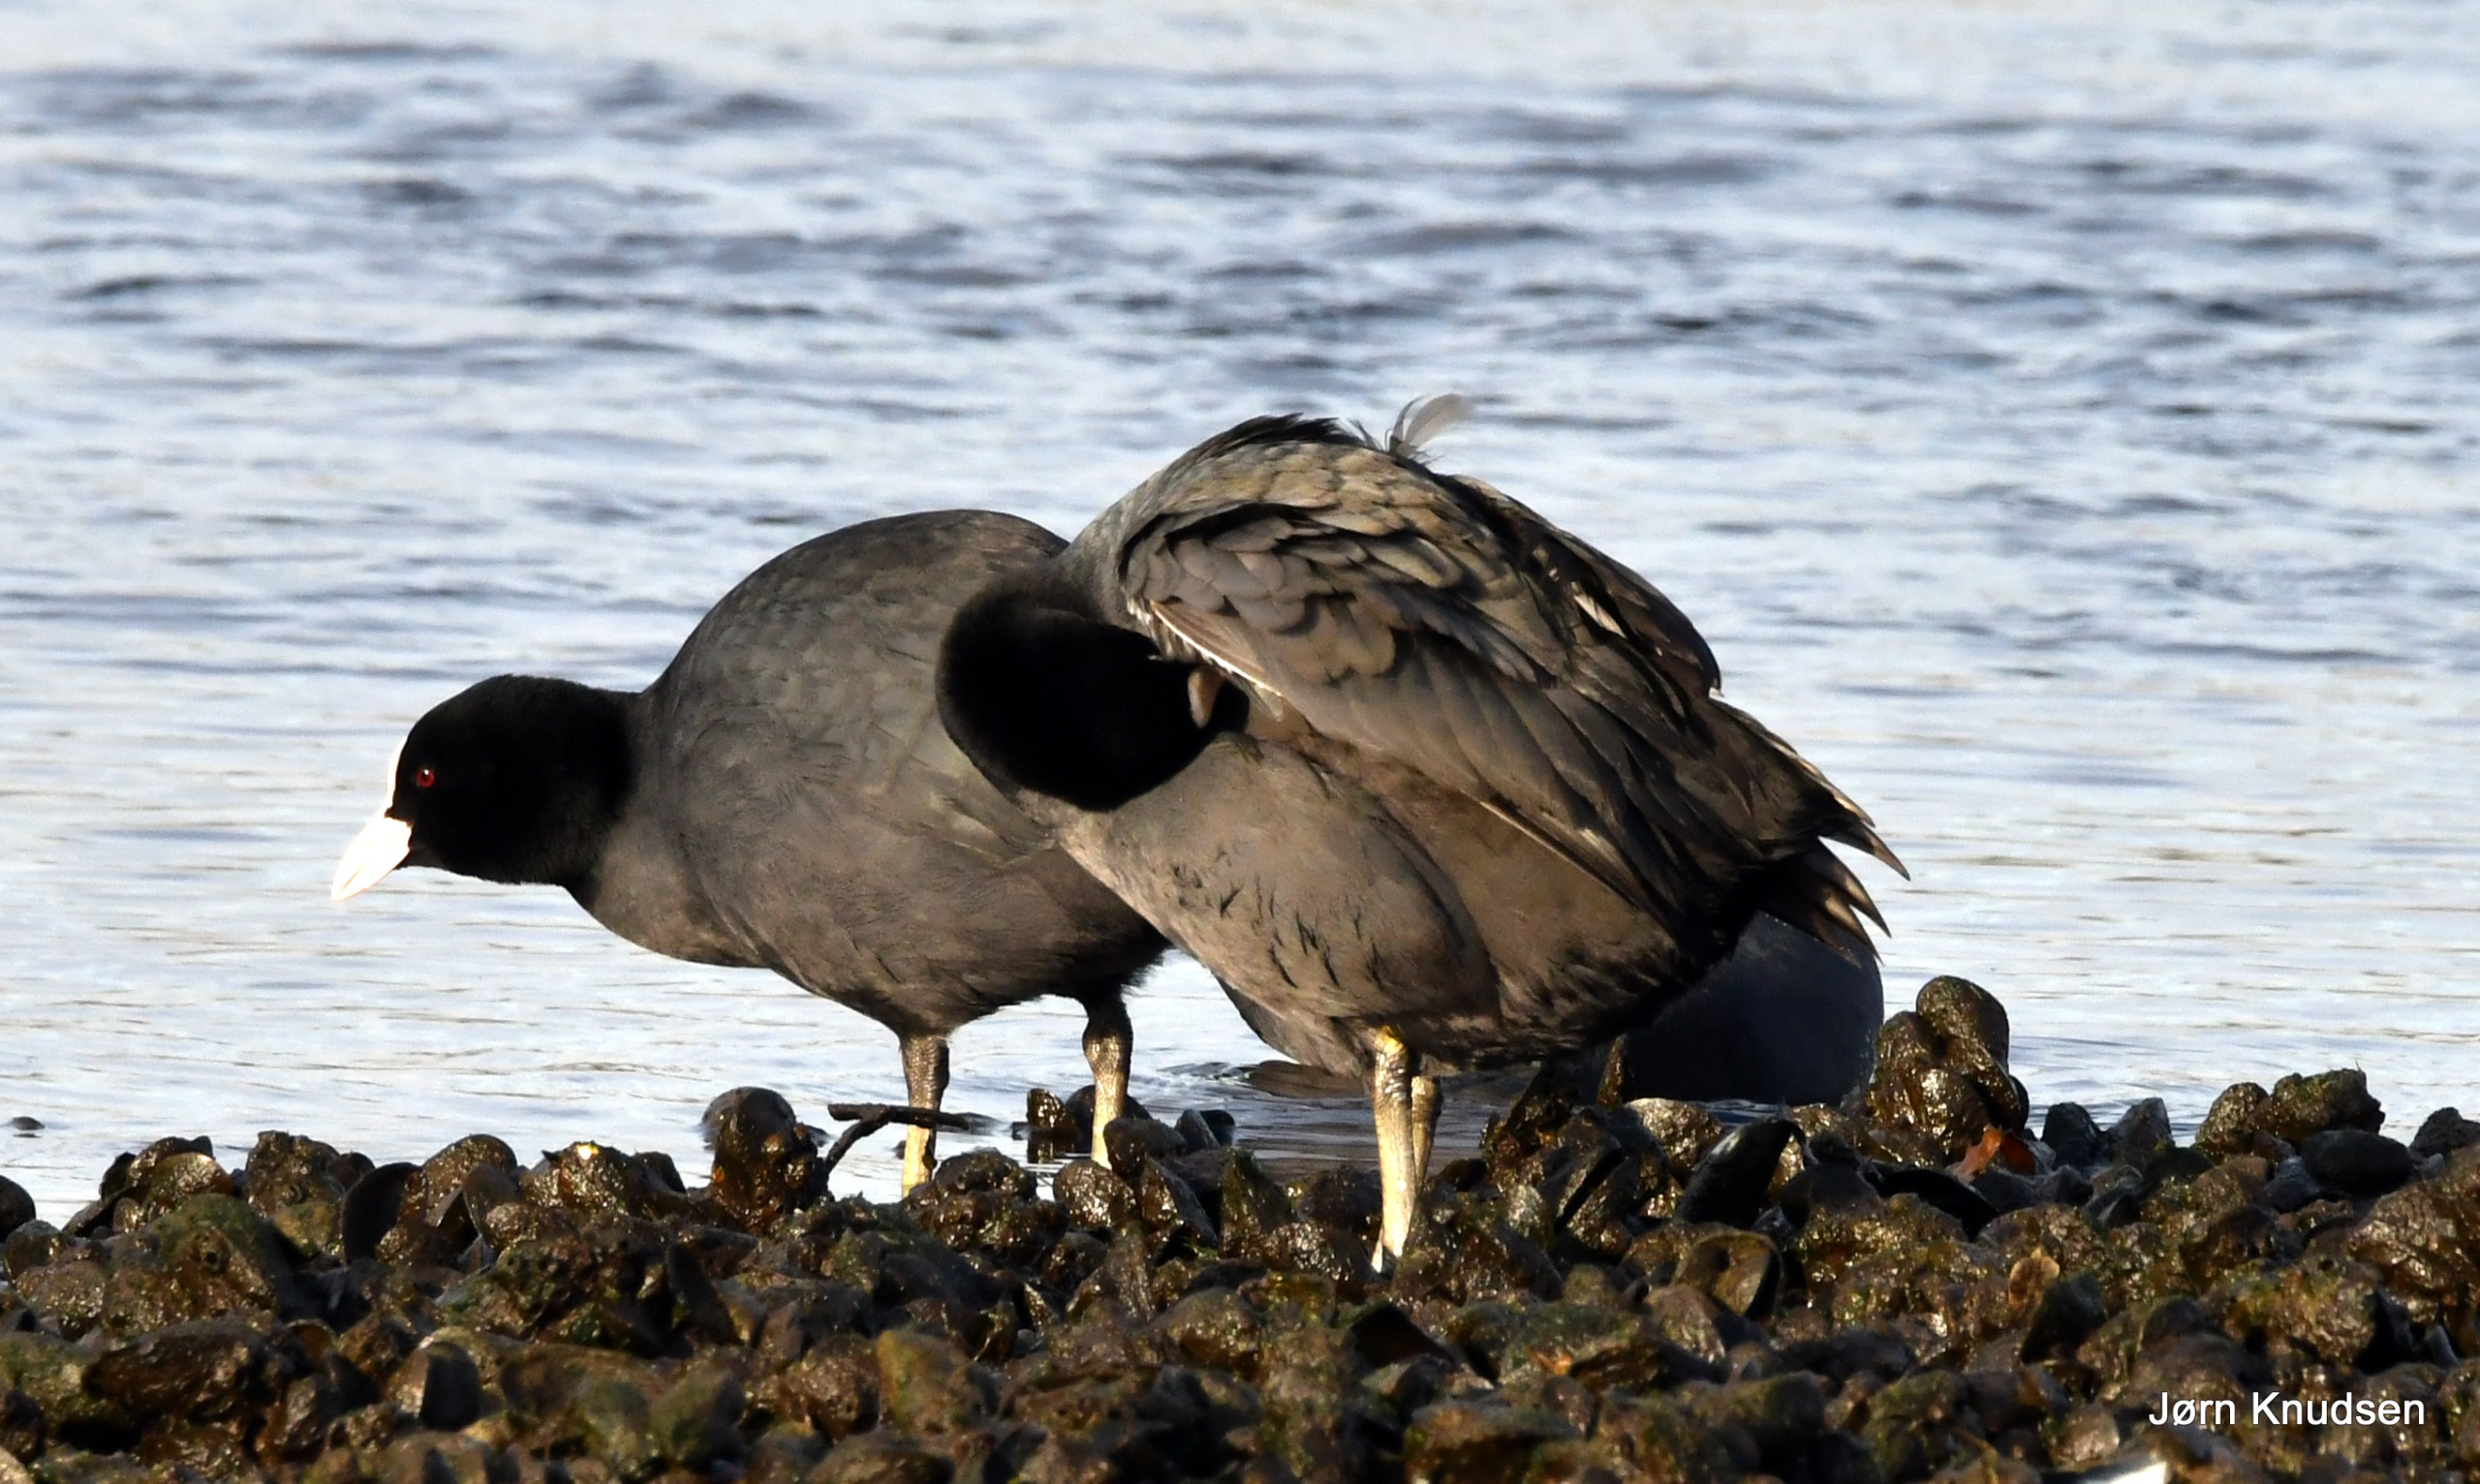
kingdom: Animalia
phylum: Chordata
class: Aves
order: Gruiformes
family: Rallidae
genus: Fulica
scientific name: Fulica atra
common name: Blishøne
